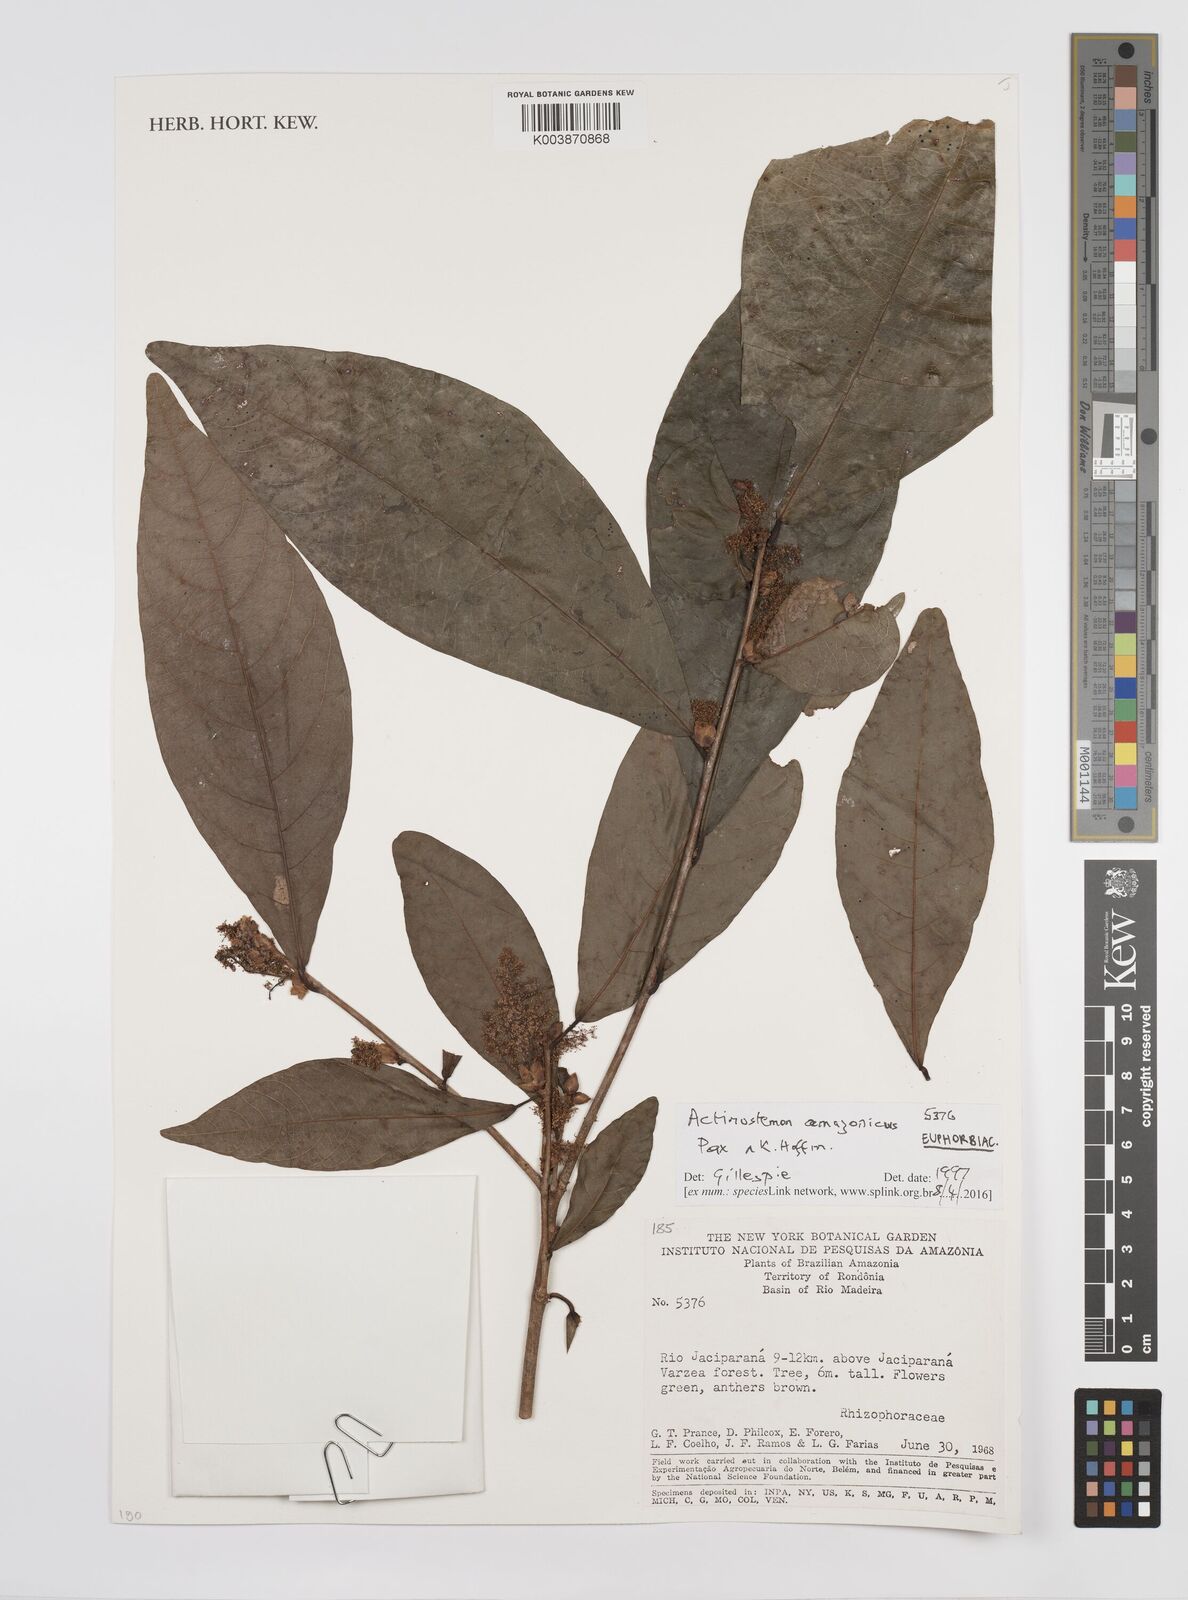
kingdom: Plantae
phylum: Tracheophyta
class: Magnoliopsida
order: Malpighiales
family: Euphorbiaceae
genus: Actinostemon
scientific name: Actinostemon amazonicus
